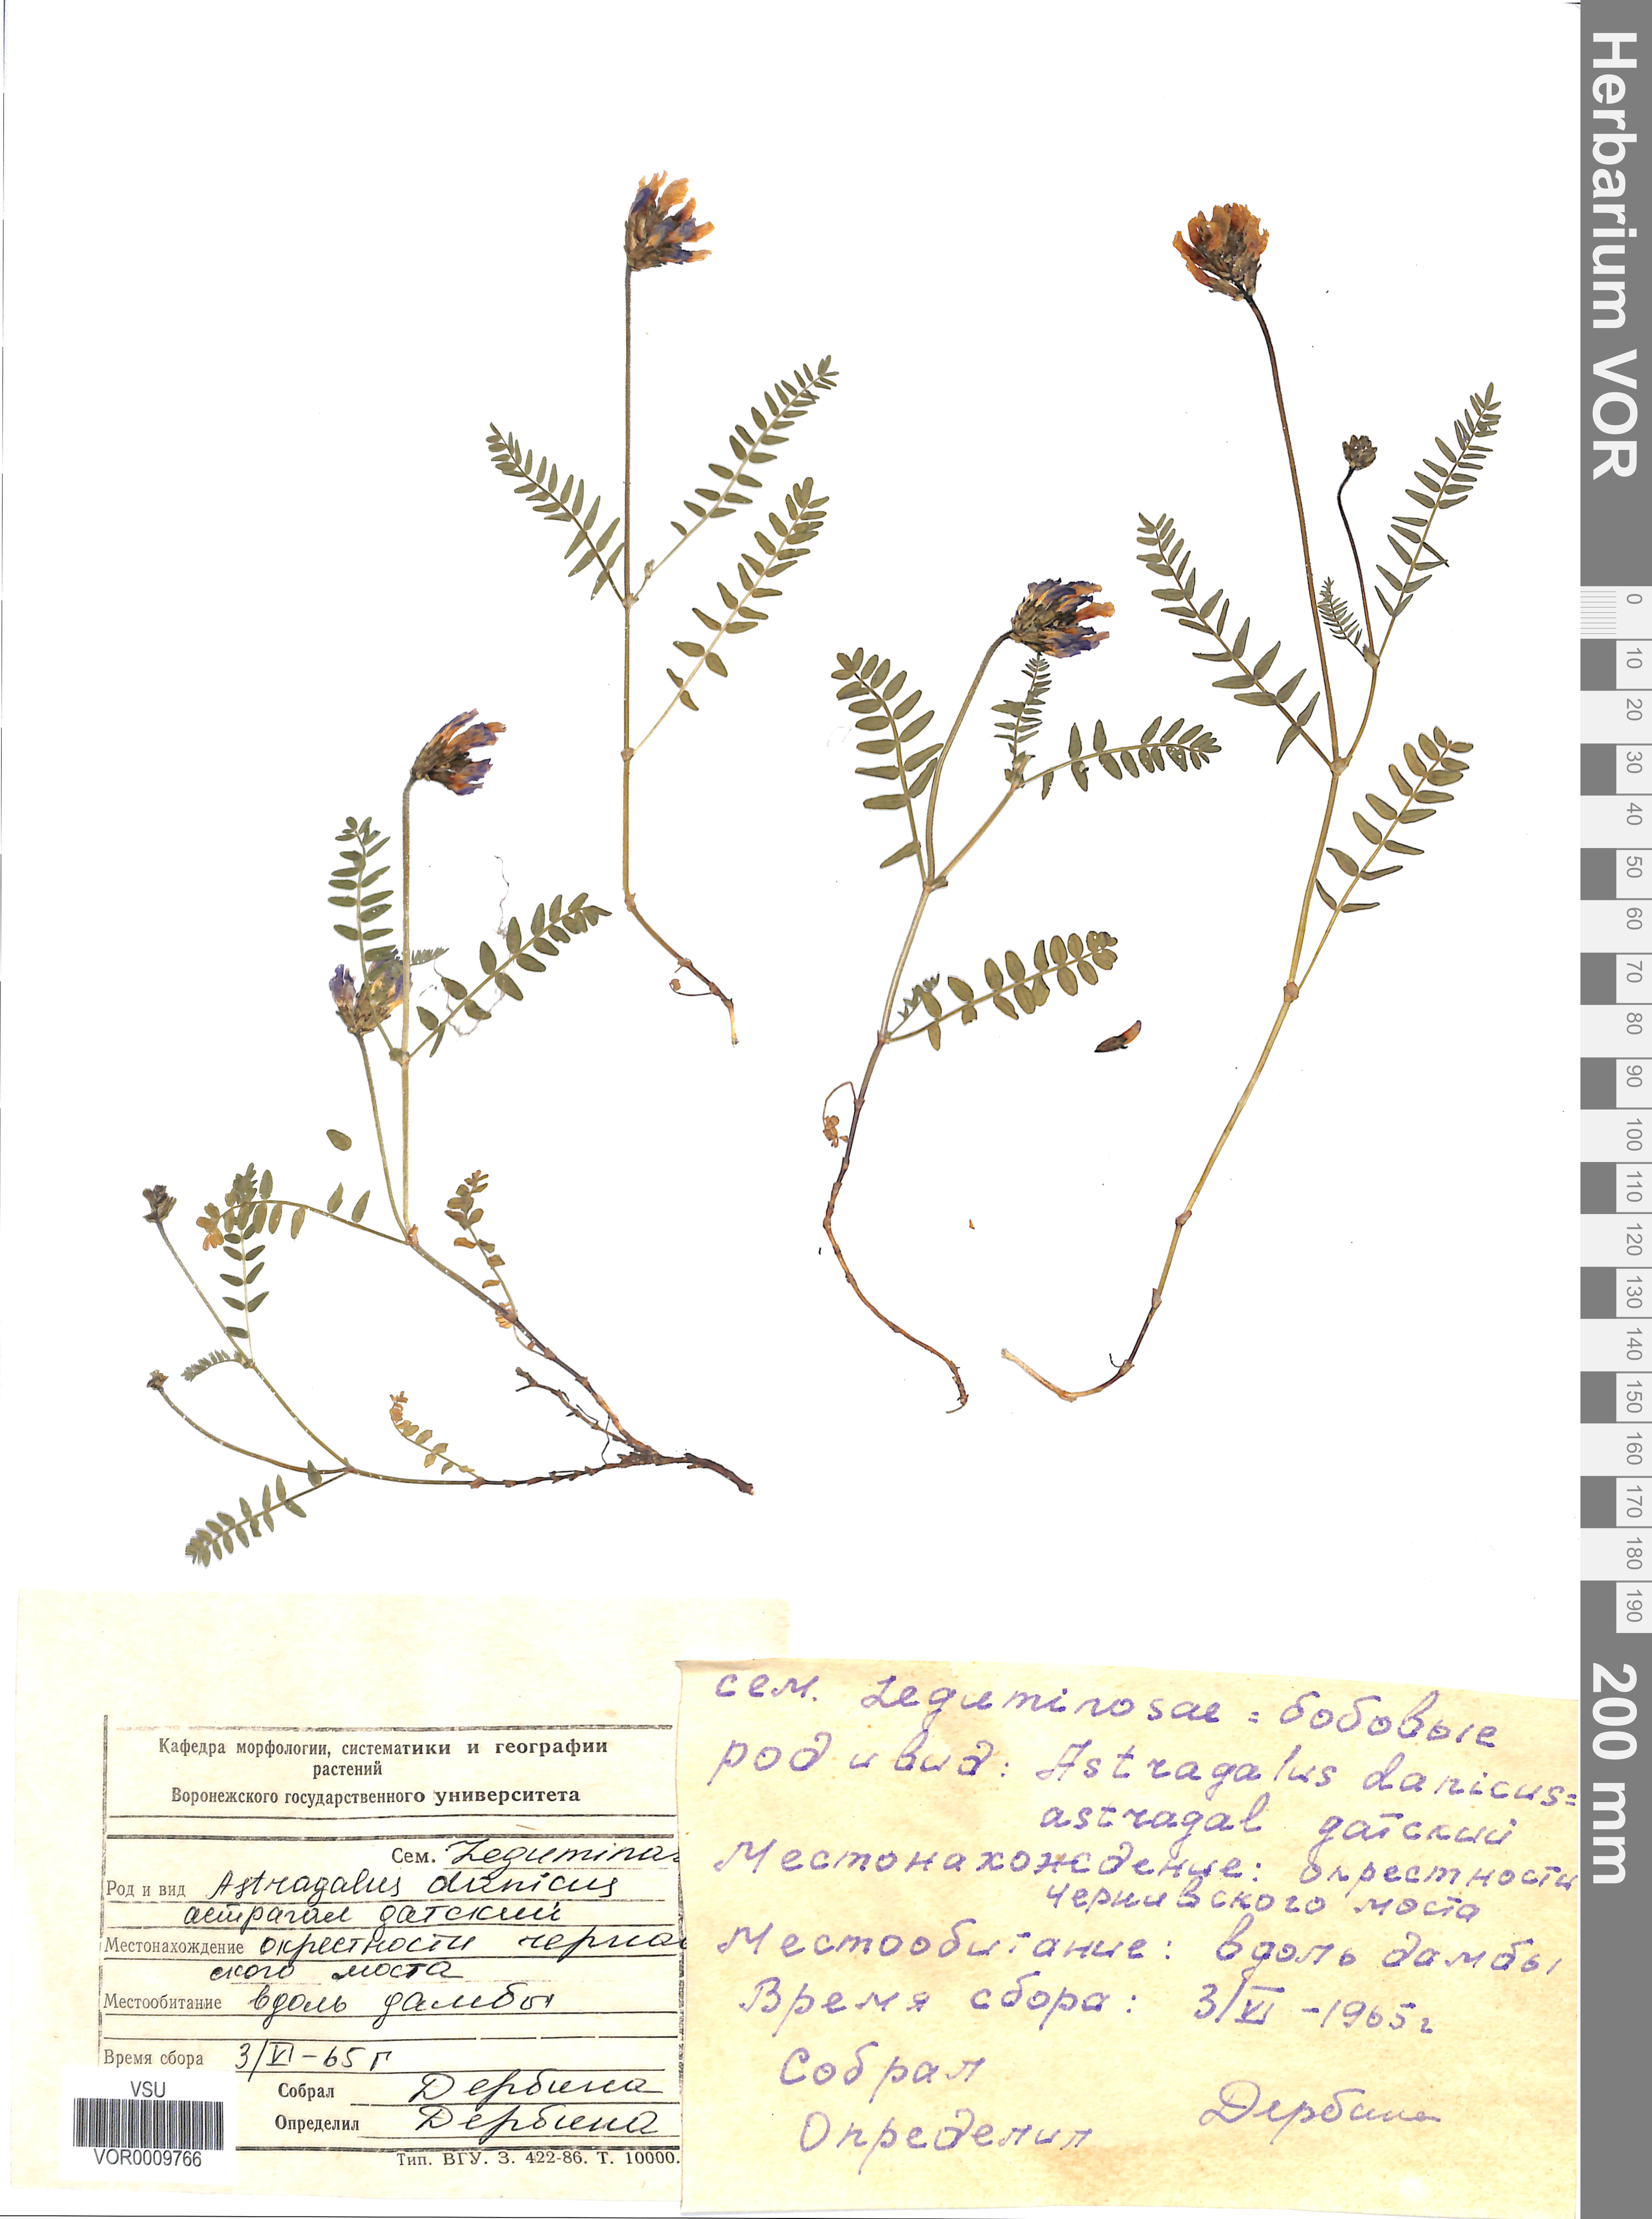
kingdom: Plantae
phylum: Tracheophyta
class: Magnoliopsida
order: Fabales
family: Fabaceae
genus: Astragalus
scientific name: Astragalus danicus
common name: Purple milk-vetch
